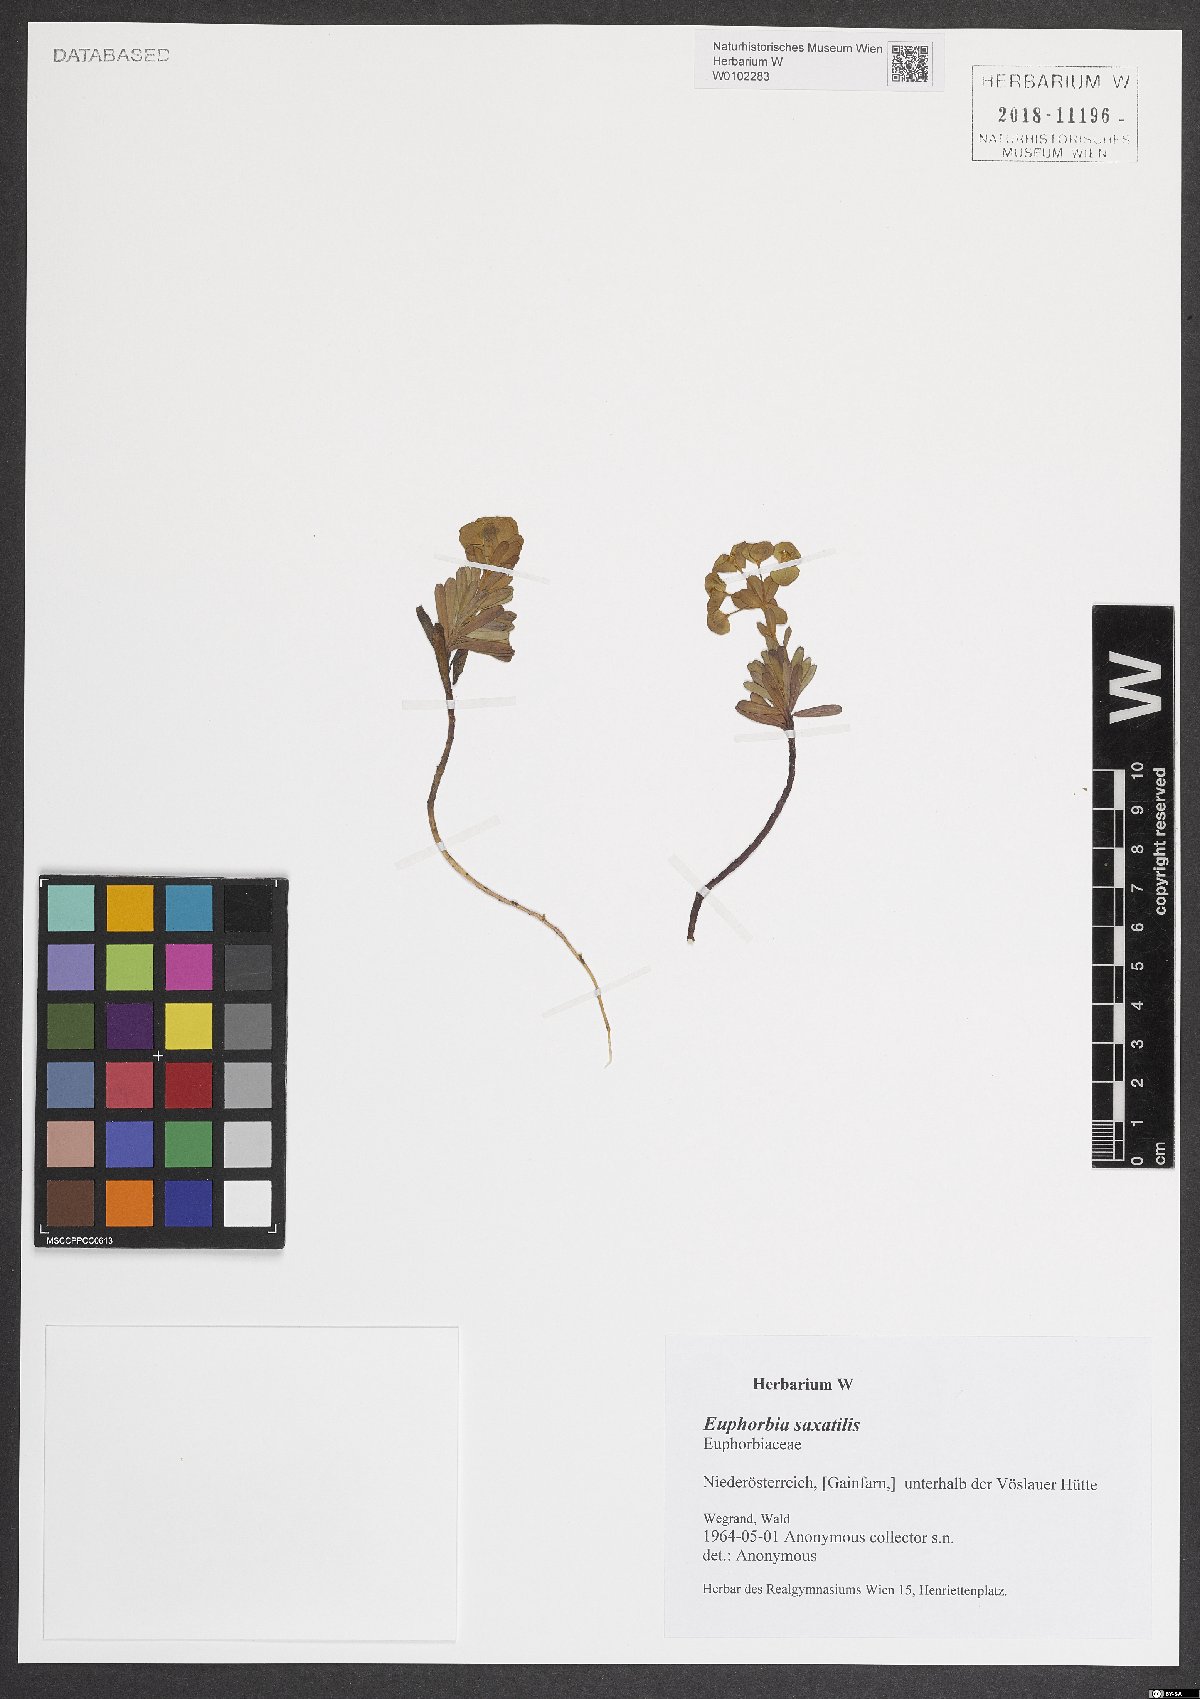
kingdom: Plantae
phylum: Tracheophyta
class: Magnoliopsida
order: Malpighiales
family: Euphorbiaceae
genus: Euphorbia
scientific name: Euphorbia saxatilis
